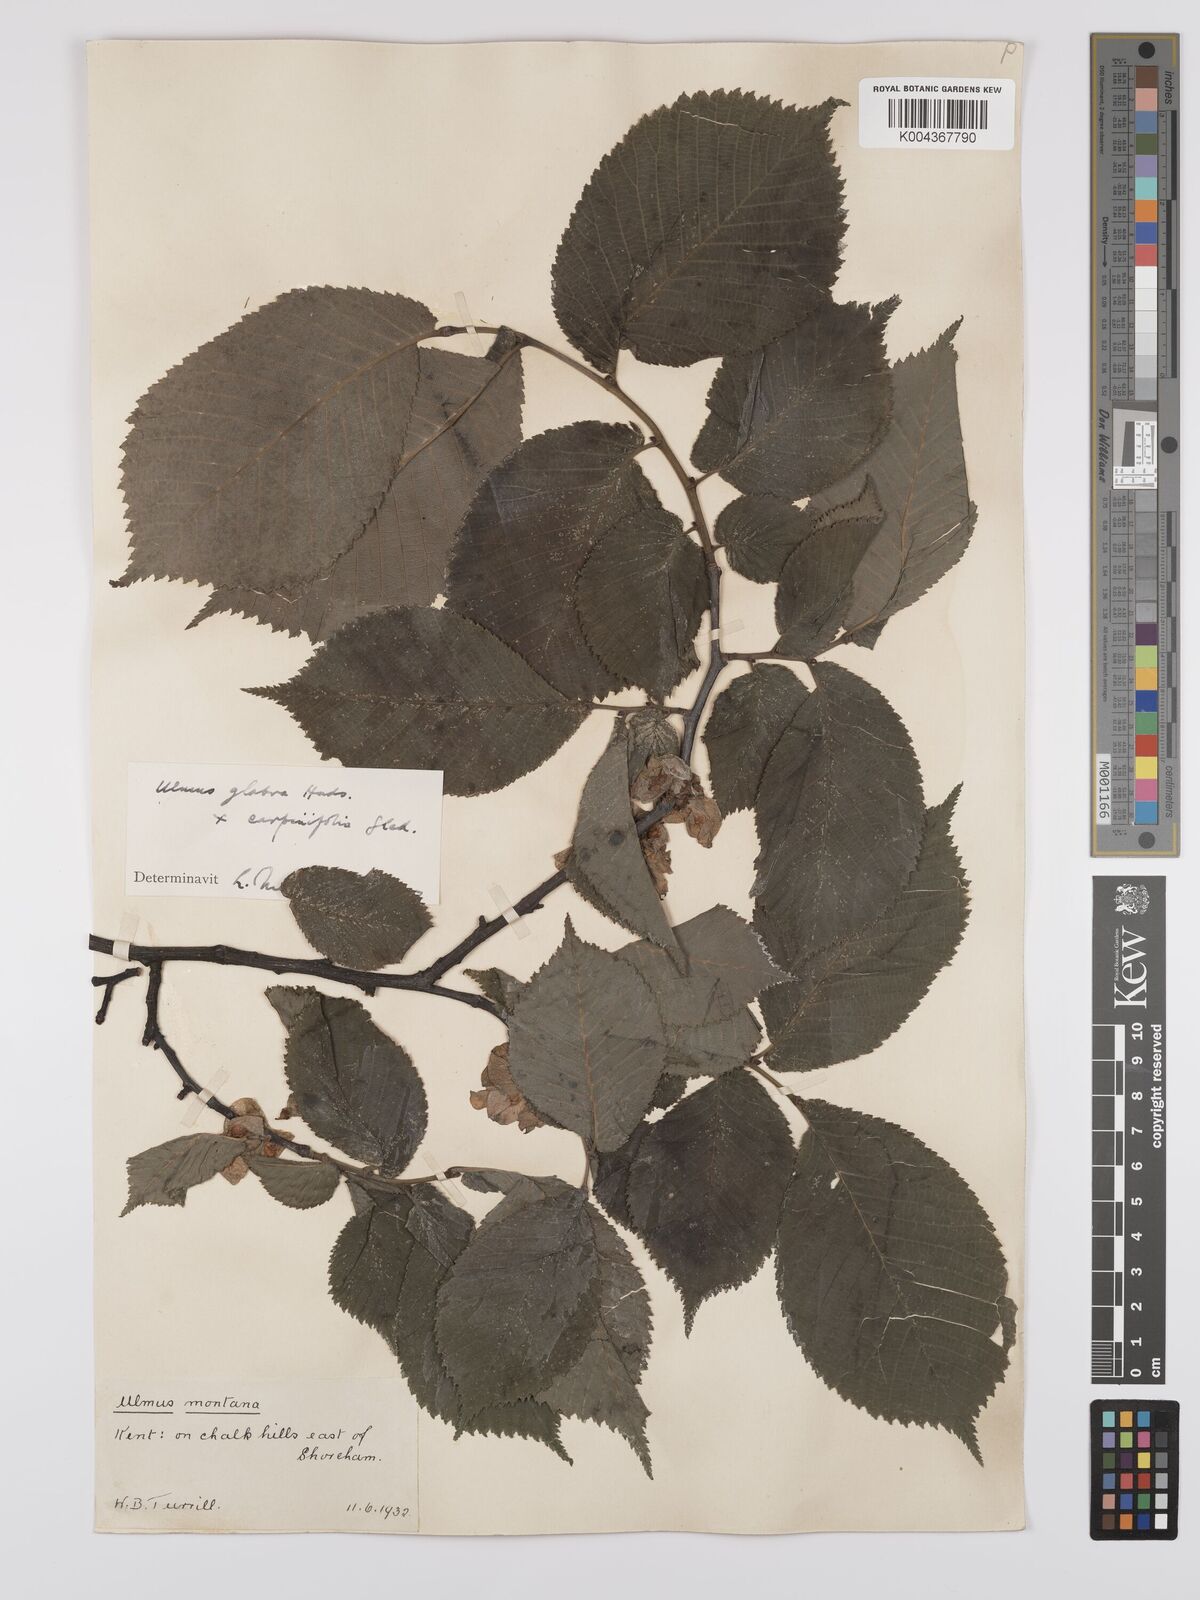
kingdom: Plantae
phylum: Tracheophyta
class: Magnoliopsida
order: Rosales
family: Ulmaceae
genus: Ulmus
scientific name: Ulmus glabra
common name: Wych elm
